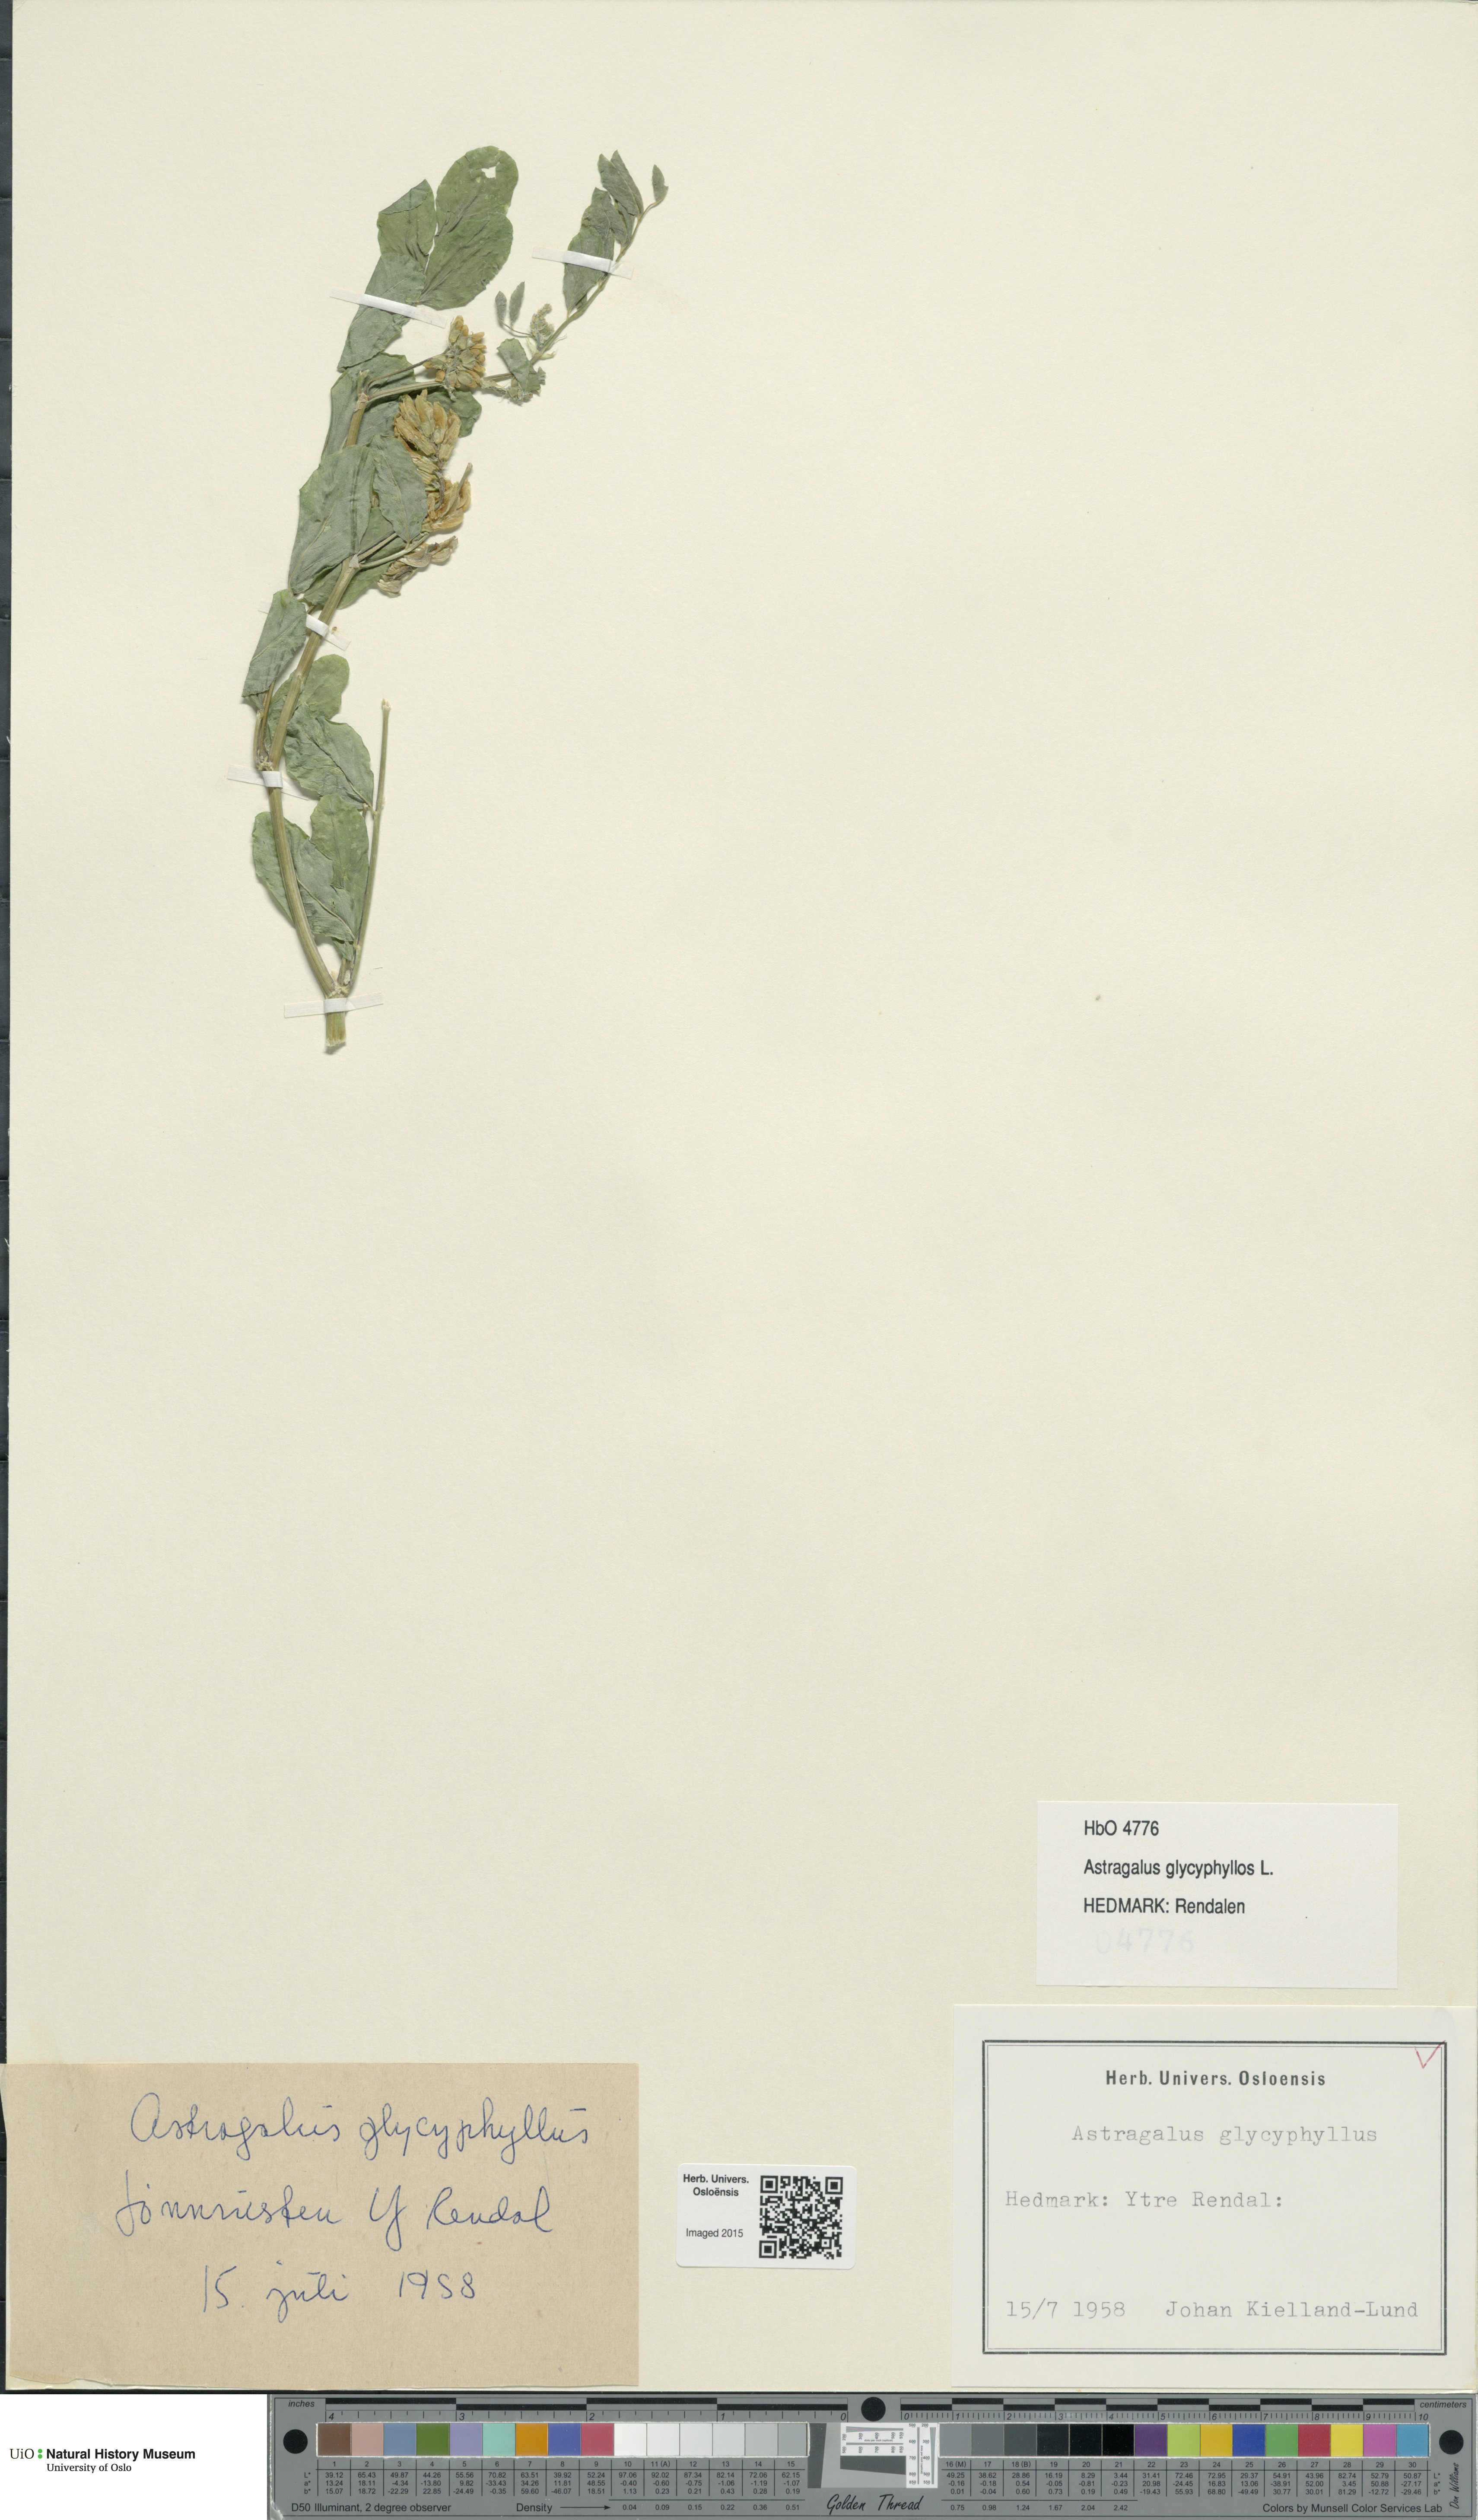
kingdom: Plantae
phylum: Tracheophyta
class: Magnoliopsida
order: Fabales
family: Fabaceae
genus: Astragalus
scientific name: Astragalus glycyphyllos
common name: Wild liquorice
